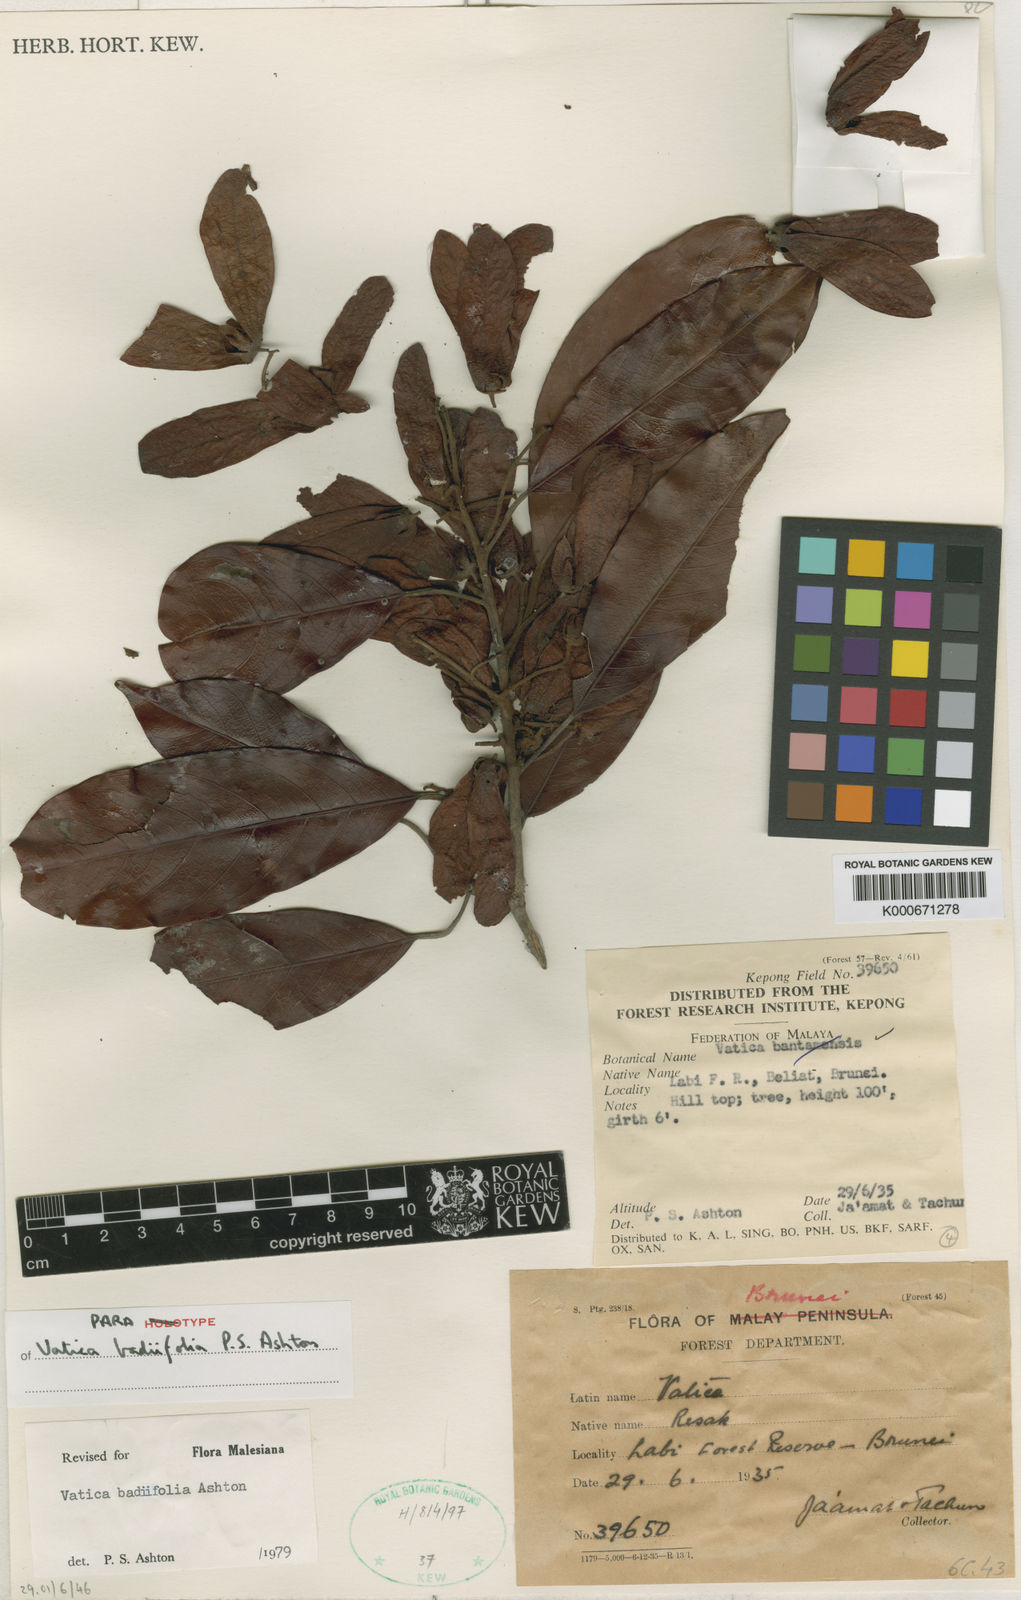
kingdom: Plantae
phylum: Tracheophyta
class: Magnoliopsida
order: Malvales
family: Dipterocarpaceae
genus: Vatica
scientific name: Vatica badiifolia
